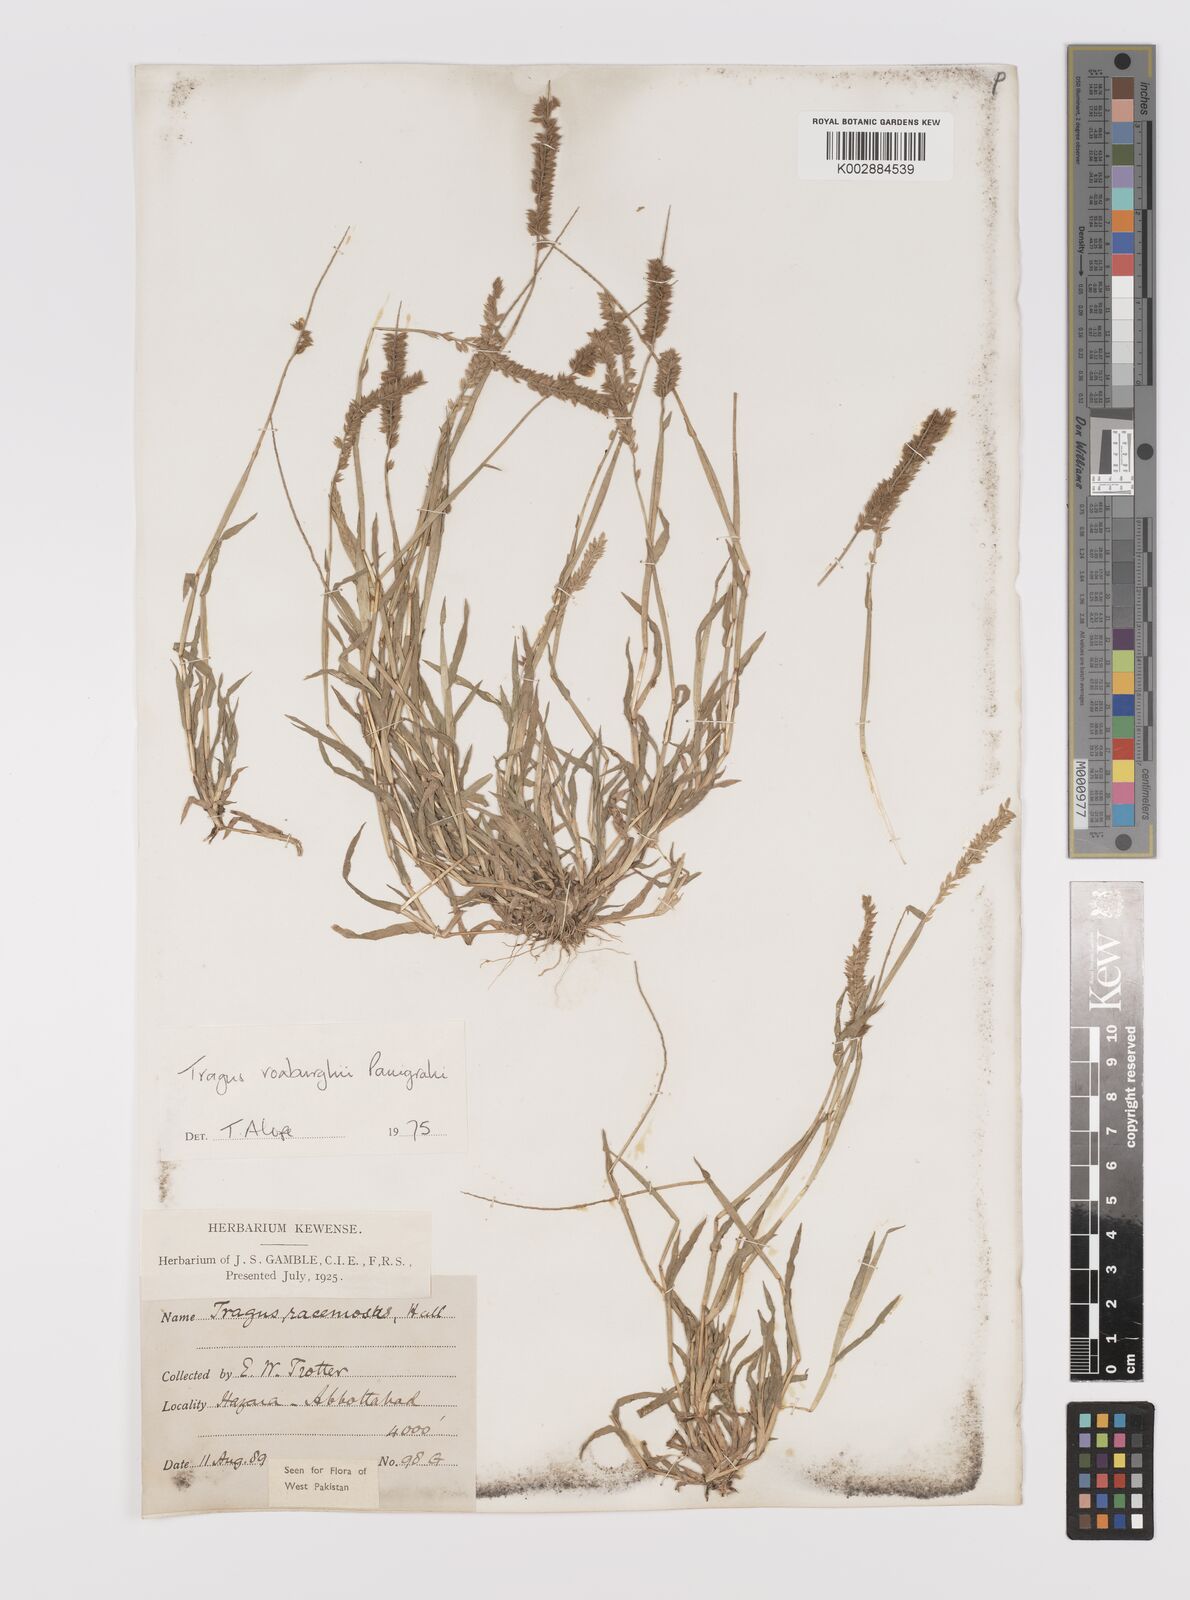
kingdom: Plantae
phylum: Tracheophyta
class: Liliopsida
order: Poales
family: Poaceae
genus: Tragus
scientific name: Tragus mongolorum
